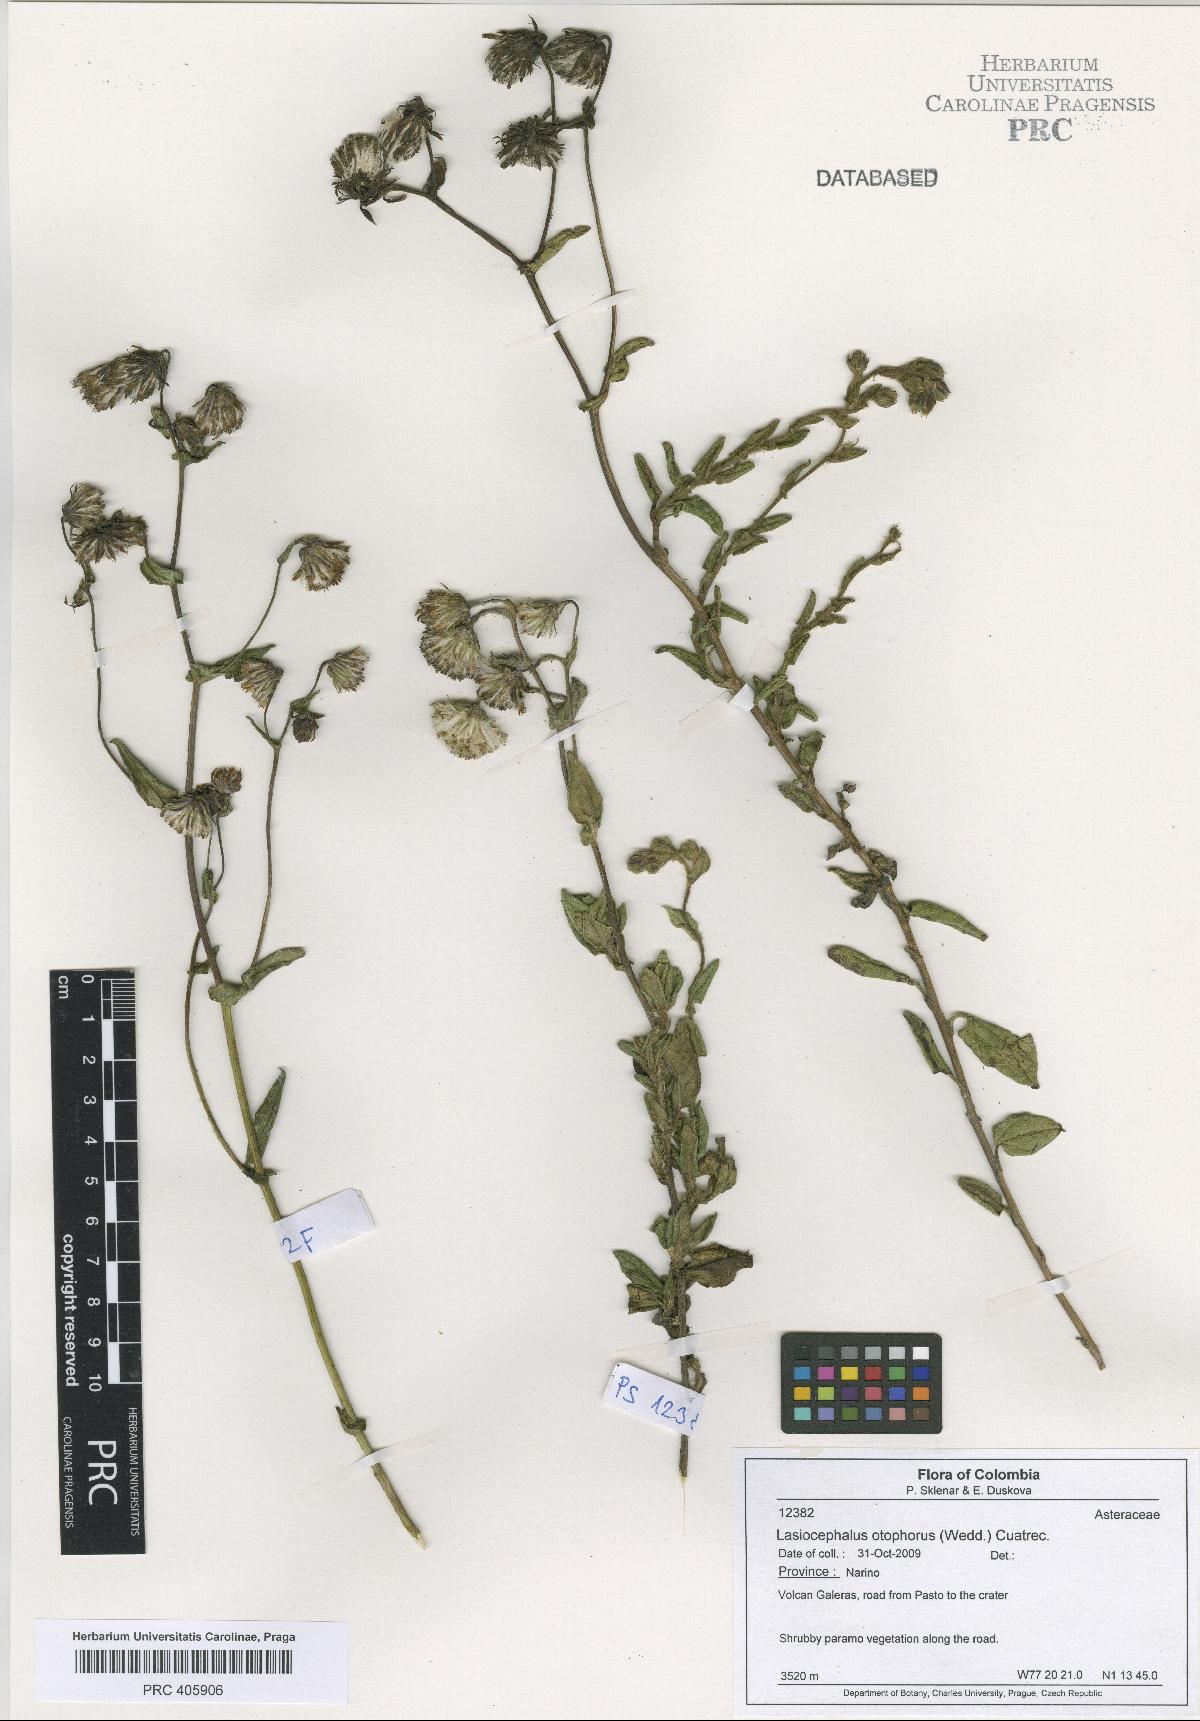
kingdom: Plantae
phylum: Tracheophyta
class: Magnoliopsida
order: Asterales
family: Asteraceae
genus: Aetheolaena
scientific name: Aetheolaena otophora
